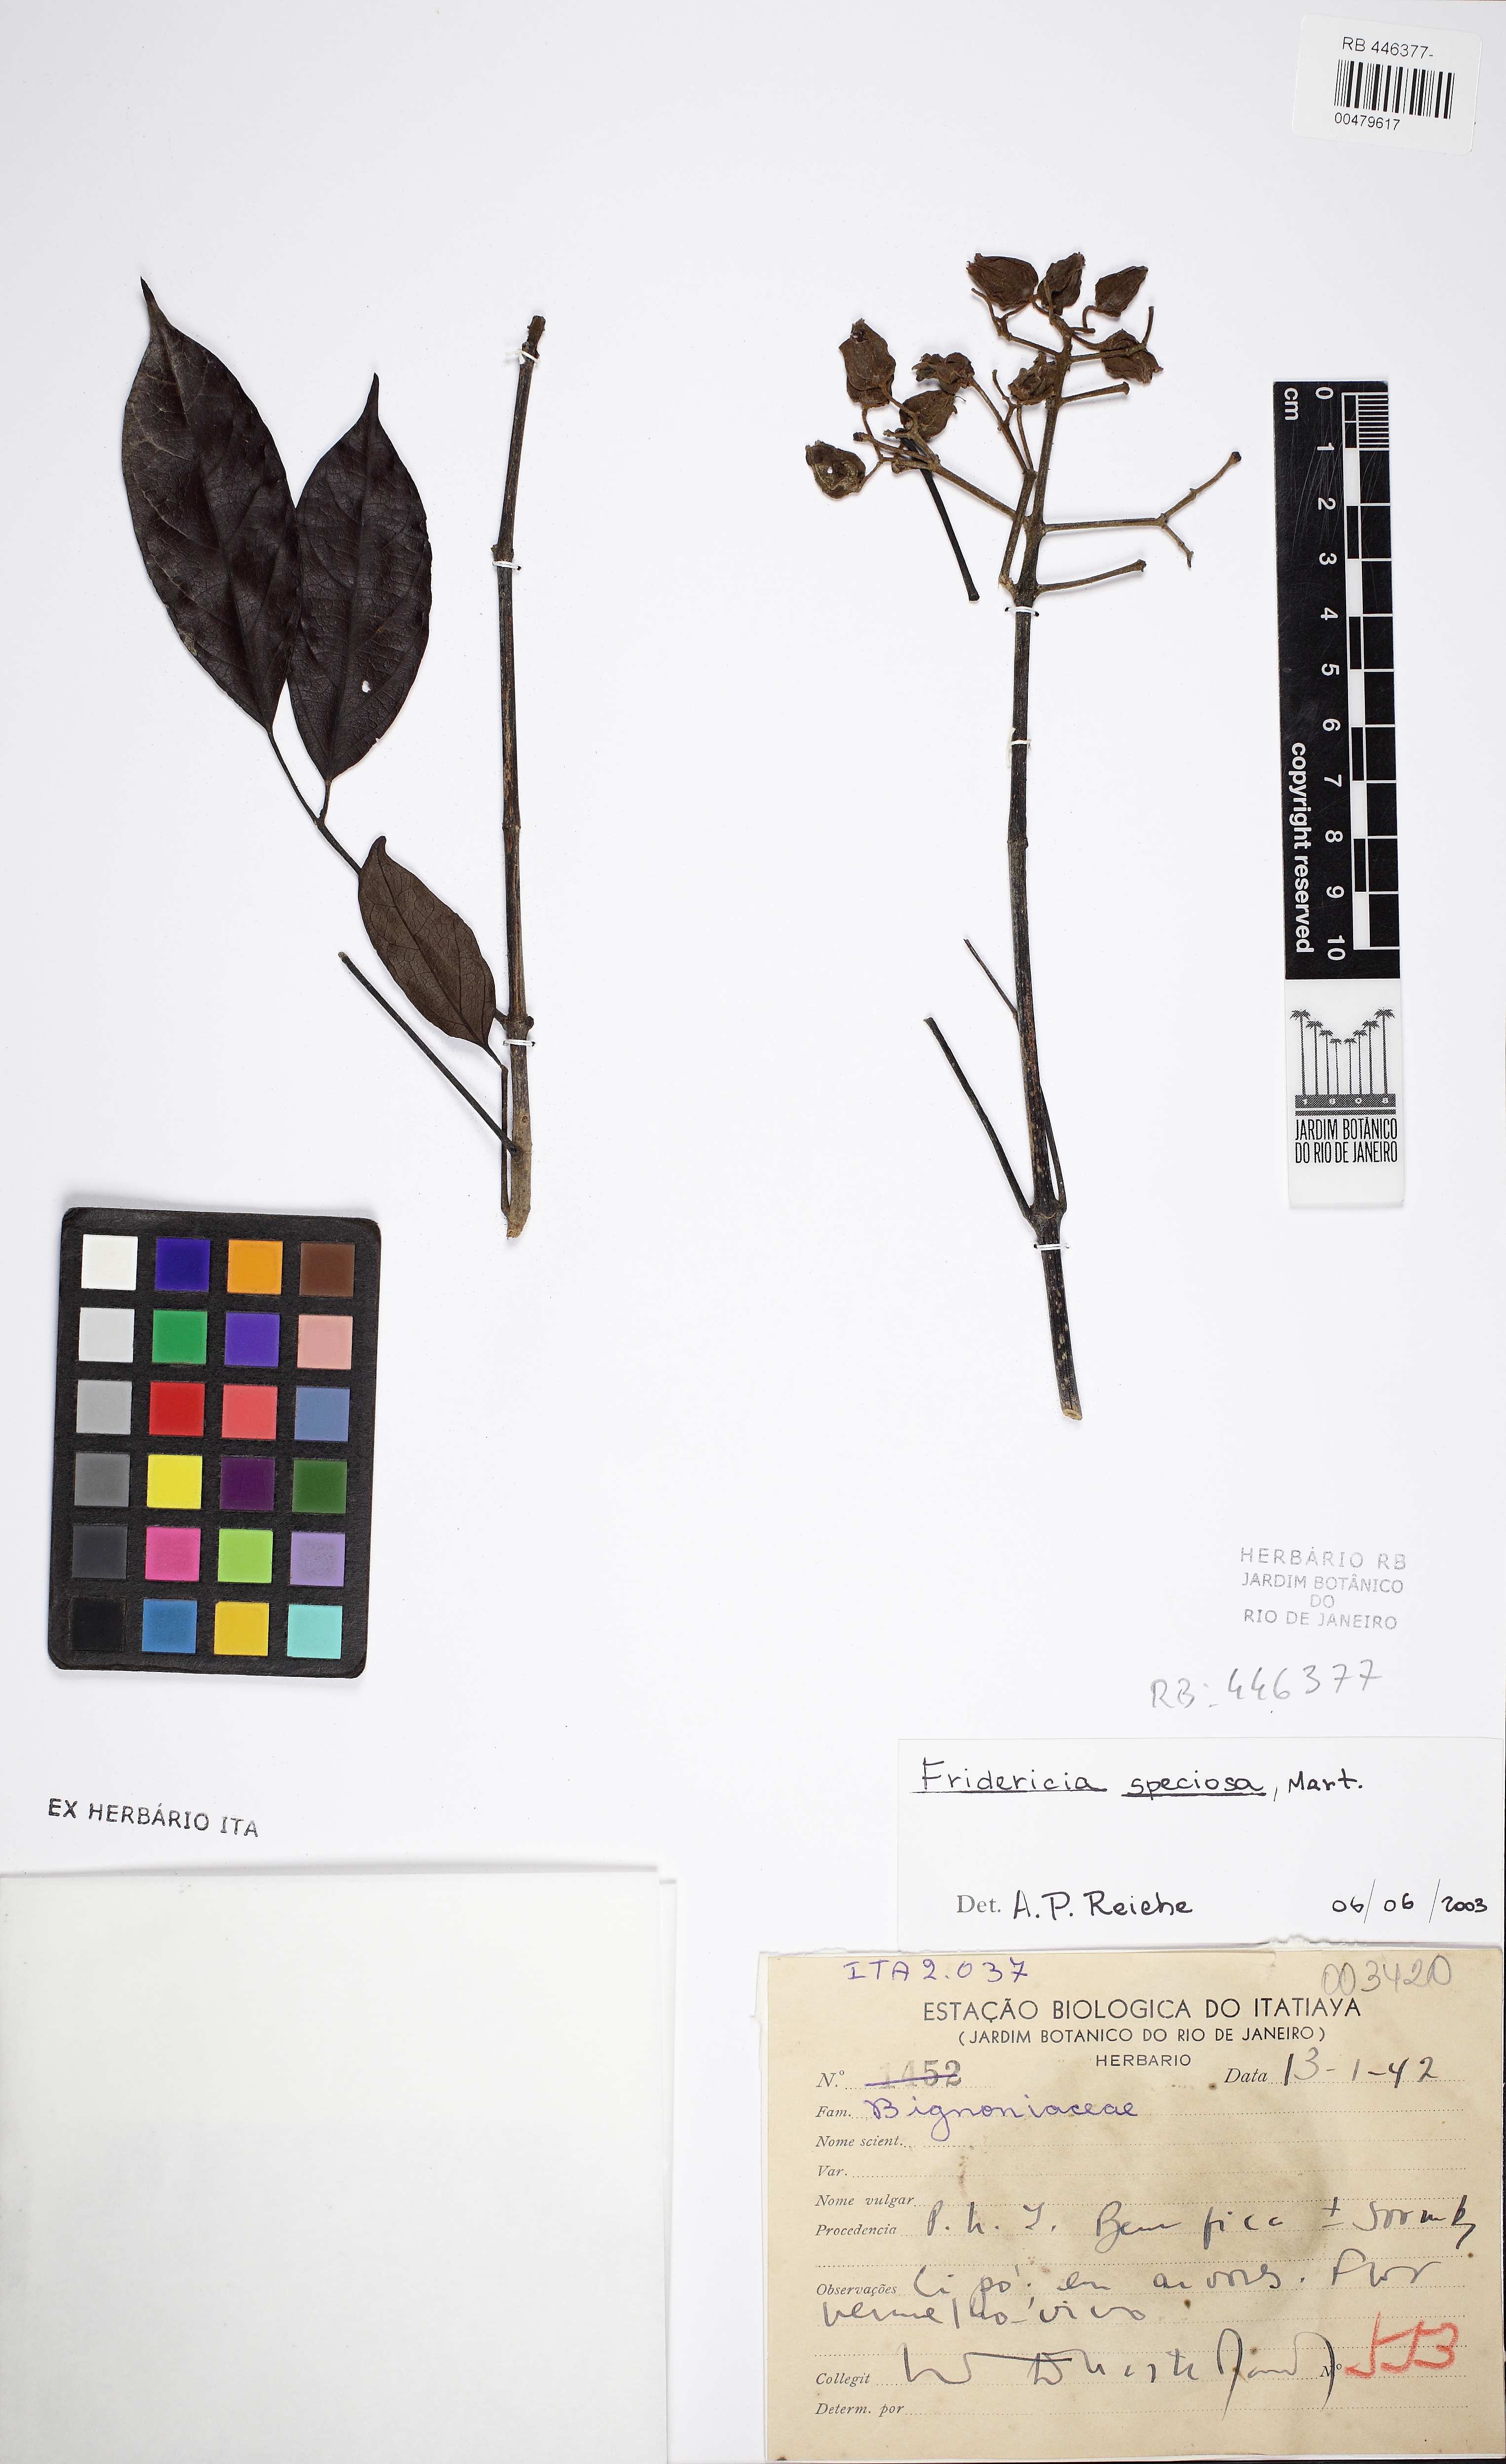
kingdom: Plantae
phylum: Tracheophyta
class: Magnoliopsida
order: Lamiales
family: Bignoniaceae
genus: Fridericia
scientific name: Fridericia speciosa
